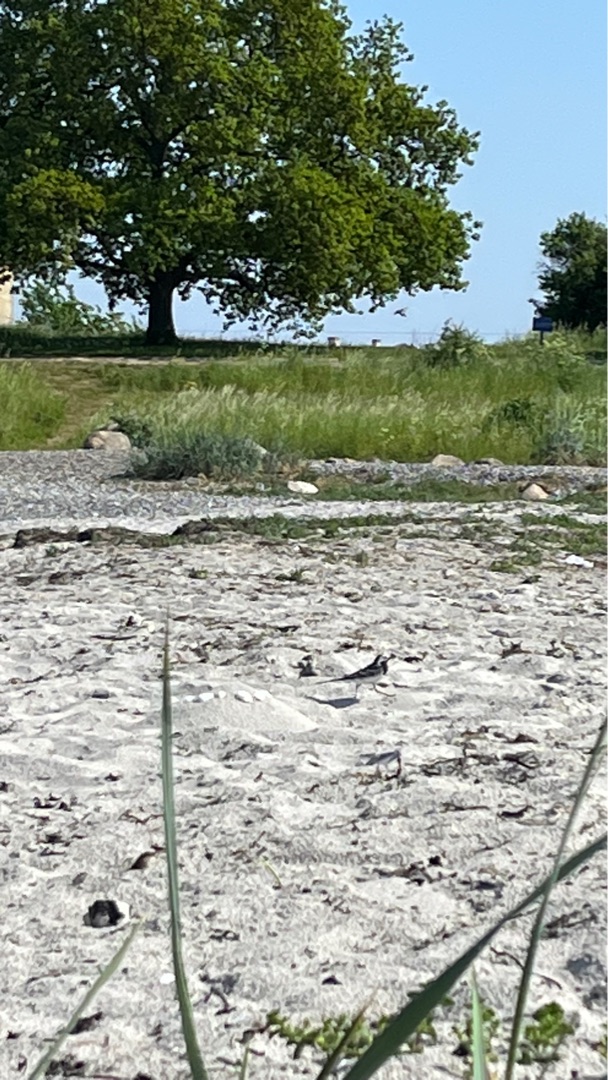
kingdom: Animalia
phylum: Chordata
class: Aves
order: Passeriformes
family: Motacillidae
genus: Motacilla
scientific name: Motacilla alba
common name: Hvid vipstjert
